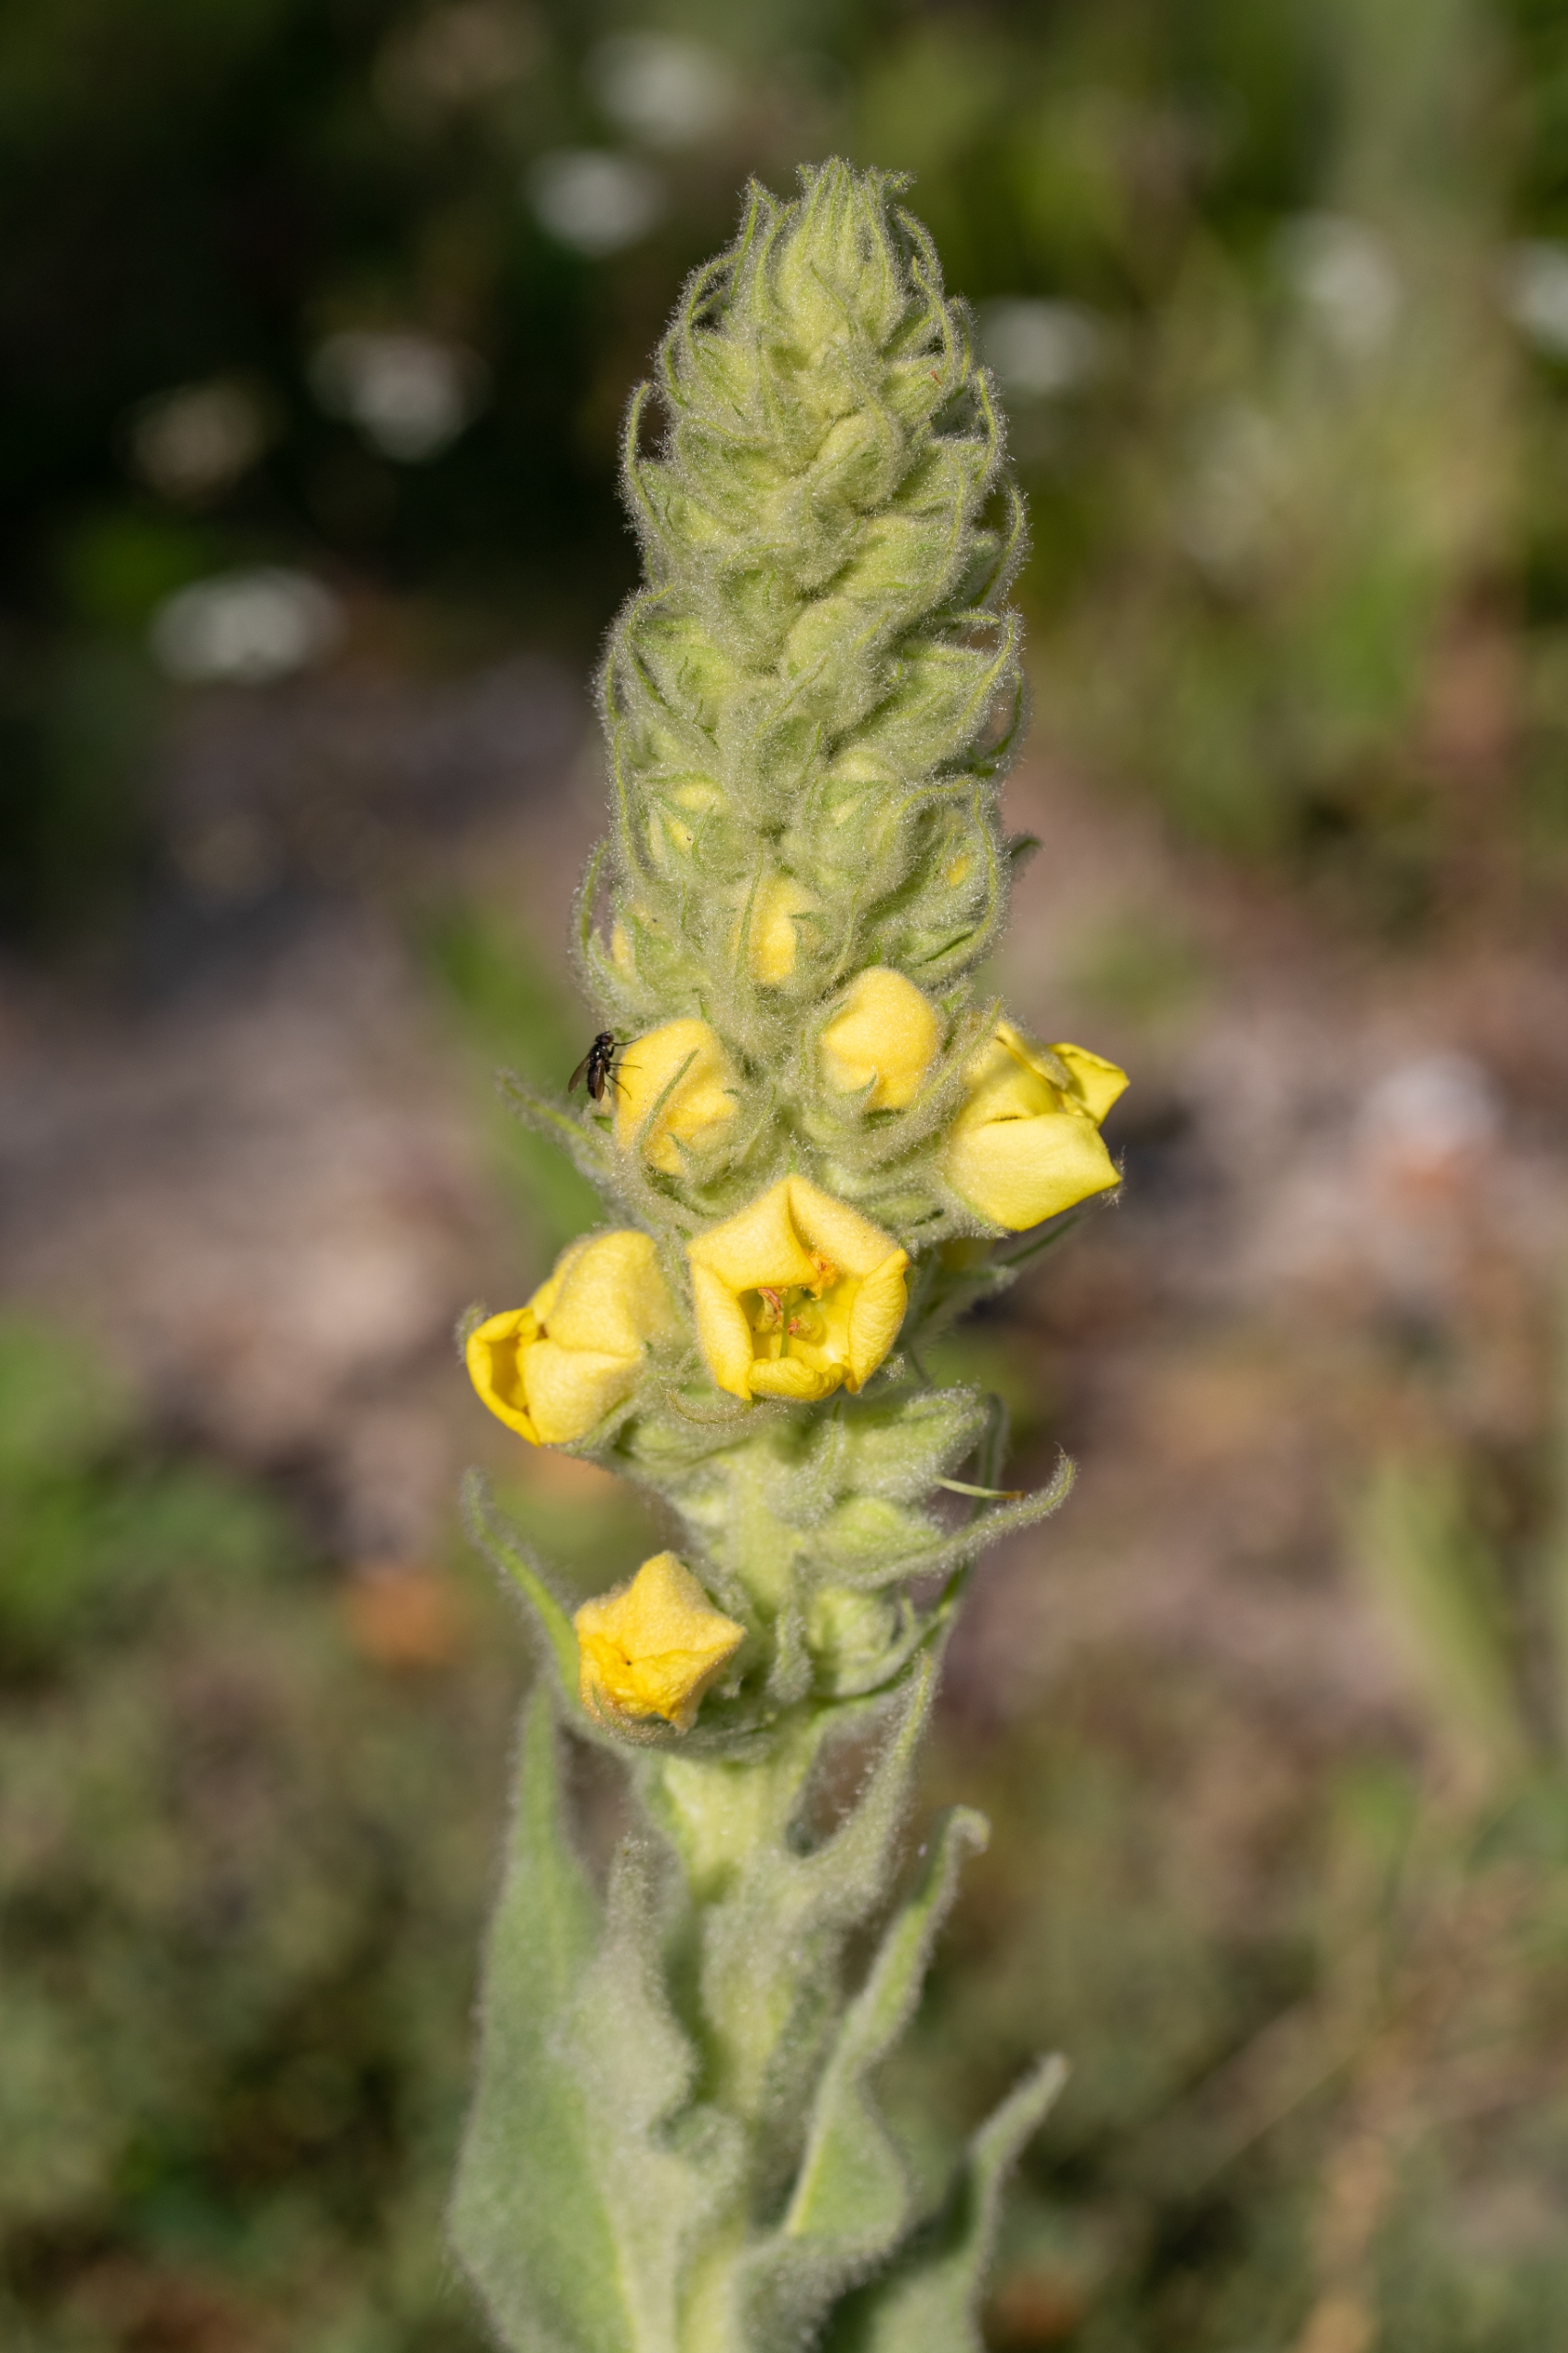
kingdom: Plantae
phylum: Tracheophyta
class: Magnoliopsida
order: Lamiales
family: Scrophulariaceae
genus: Verbascum
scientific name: Verbascum densiflorum
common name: Uldbladet kongelys
